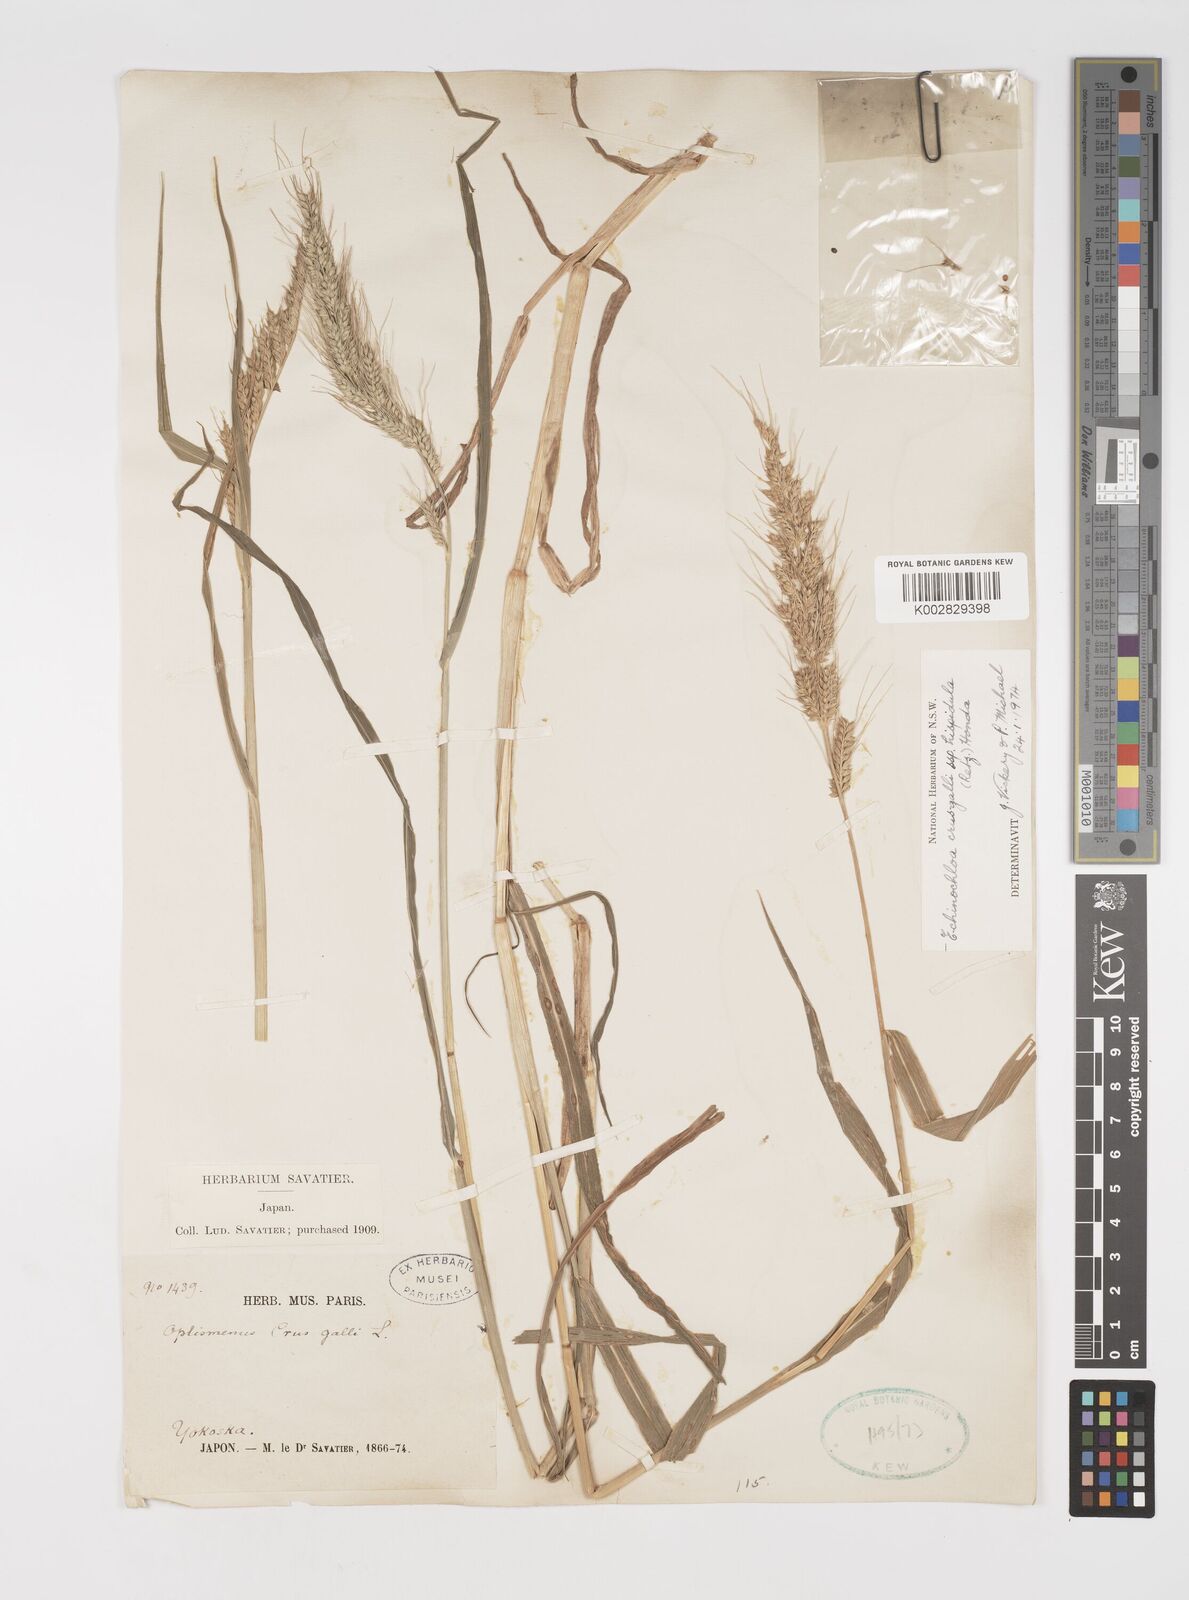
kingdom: Plantae
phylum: Tracheophyta
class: Liliopsida
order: Poales
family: Poaceae
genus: Echinochloa
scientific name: Echinochloa crus-galli
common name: Cockspur
